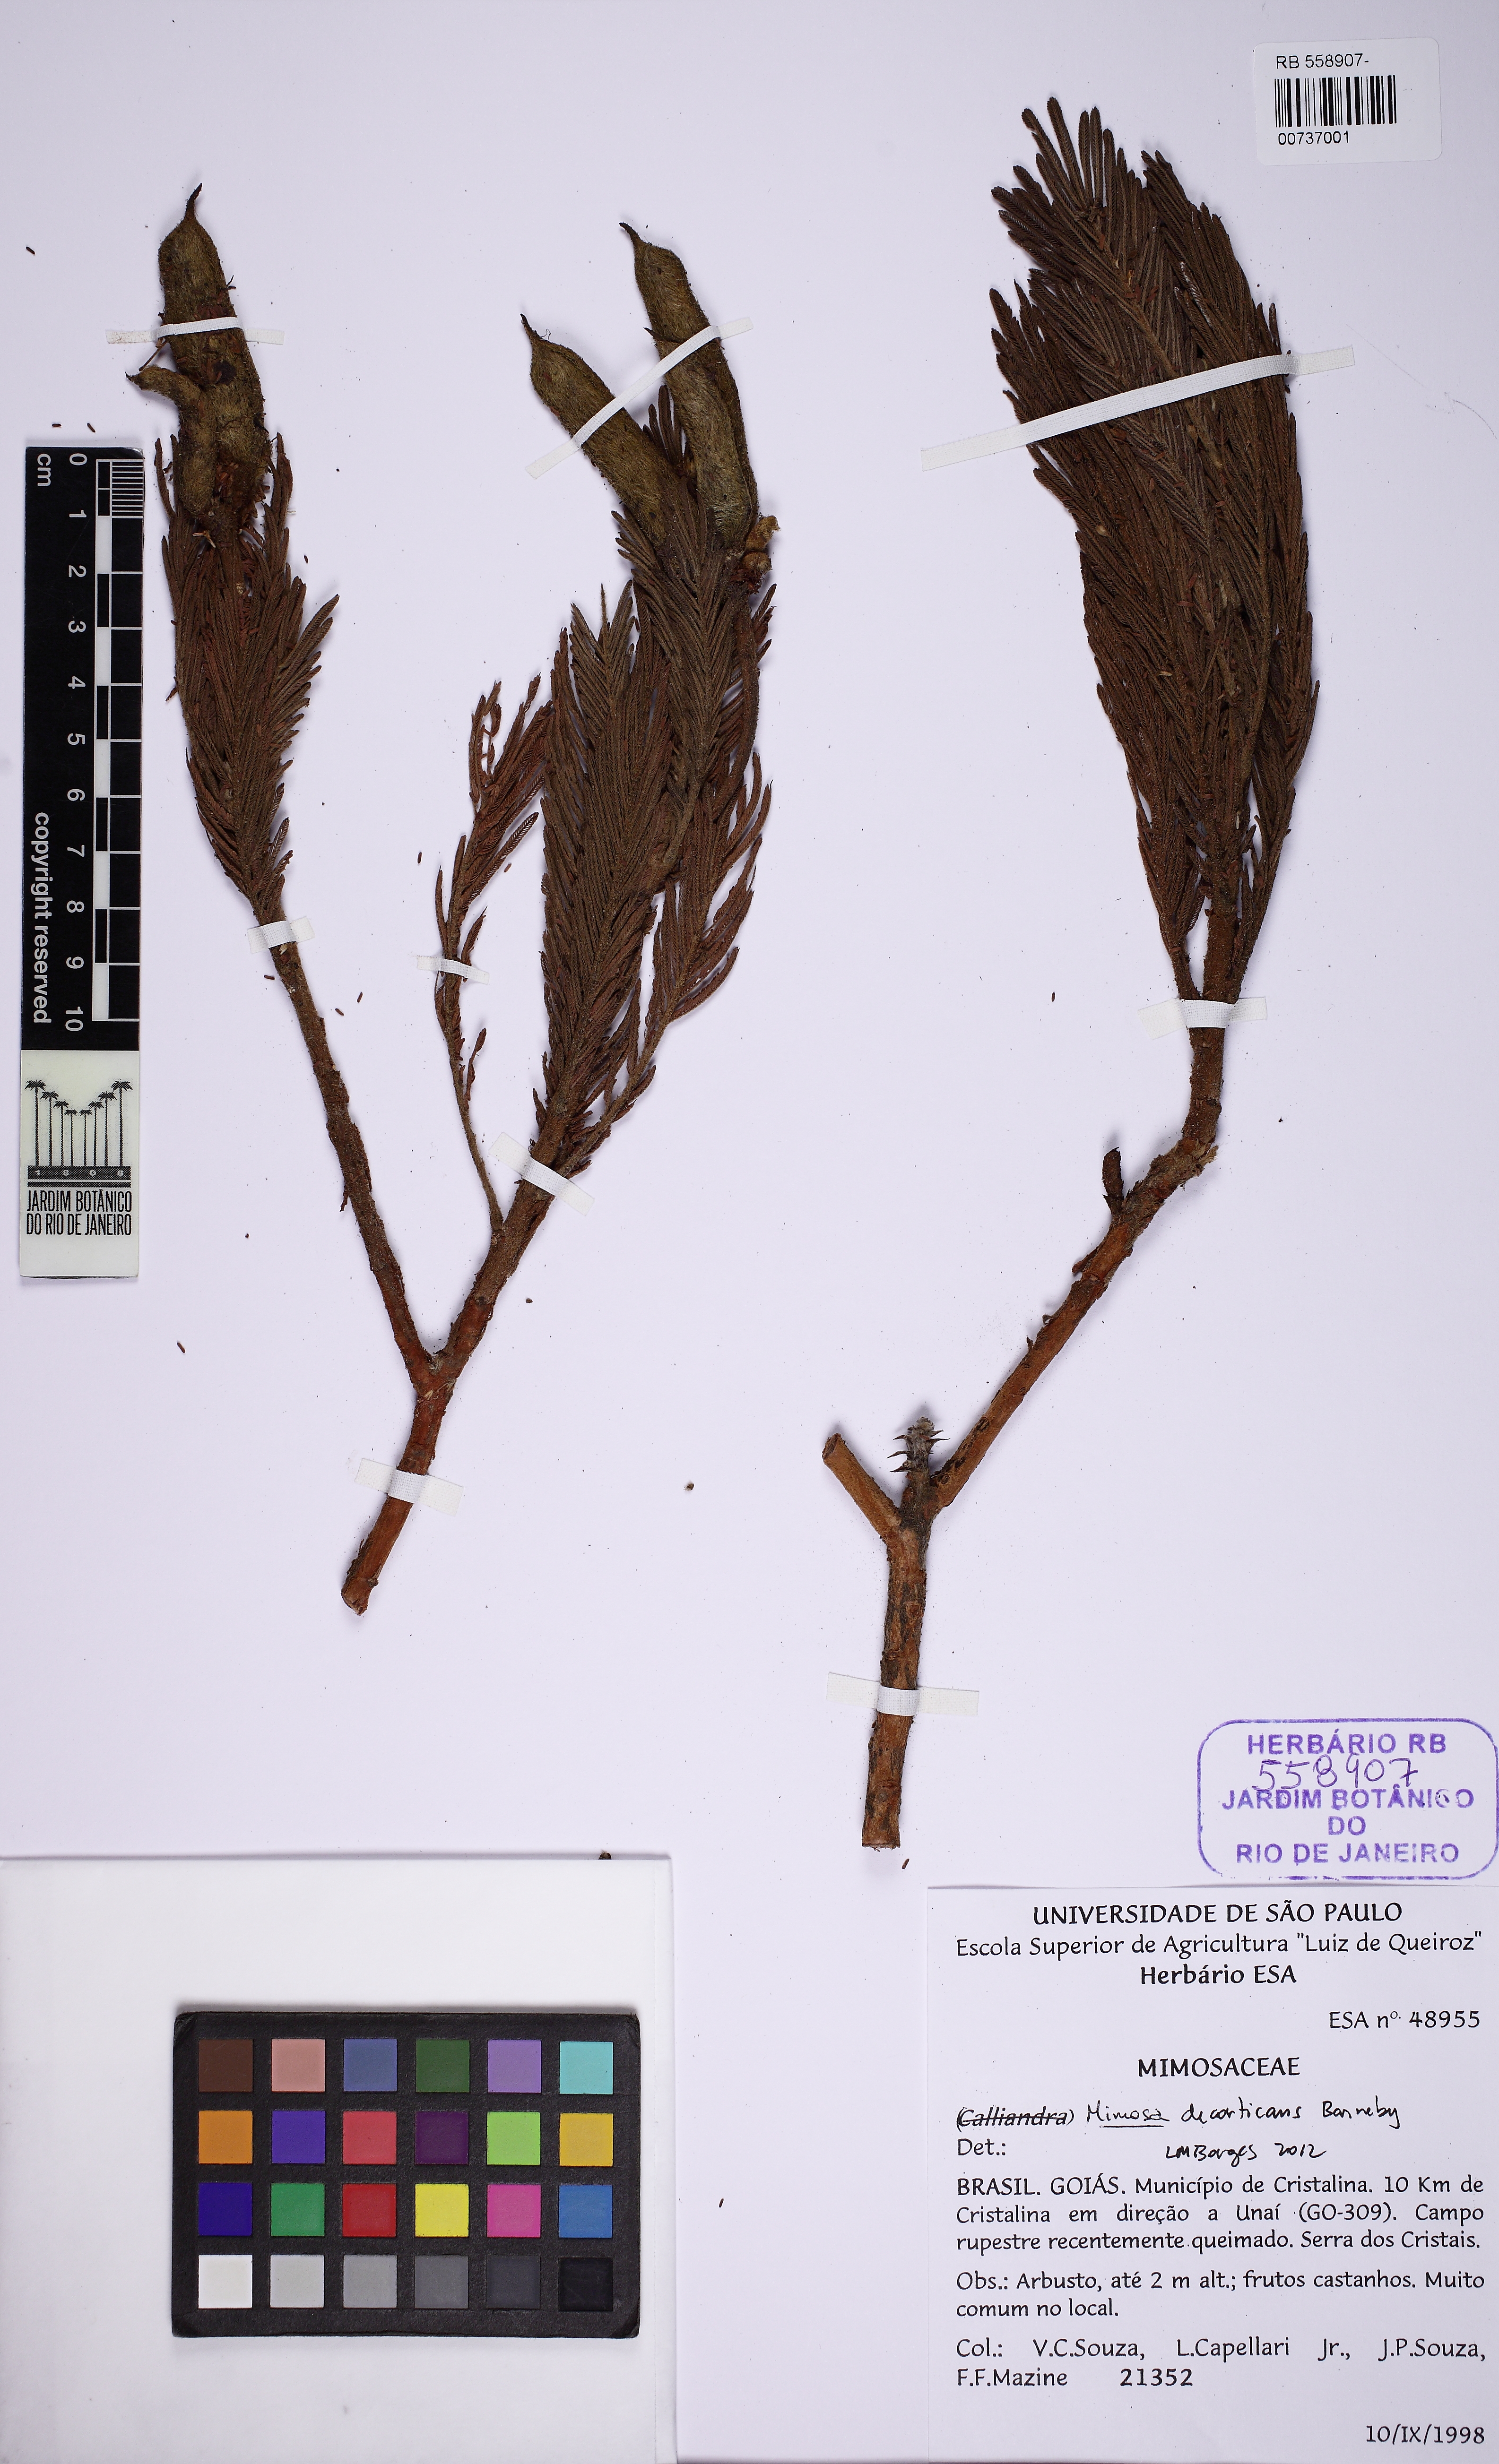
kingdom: Plantae
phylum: Tracheophyta
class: Magnoliopsida
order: Fabales
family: Fabaceae
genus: Mimosa
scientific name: Mimosa decorticans
